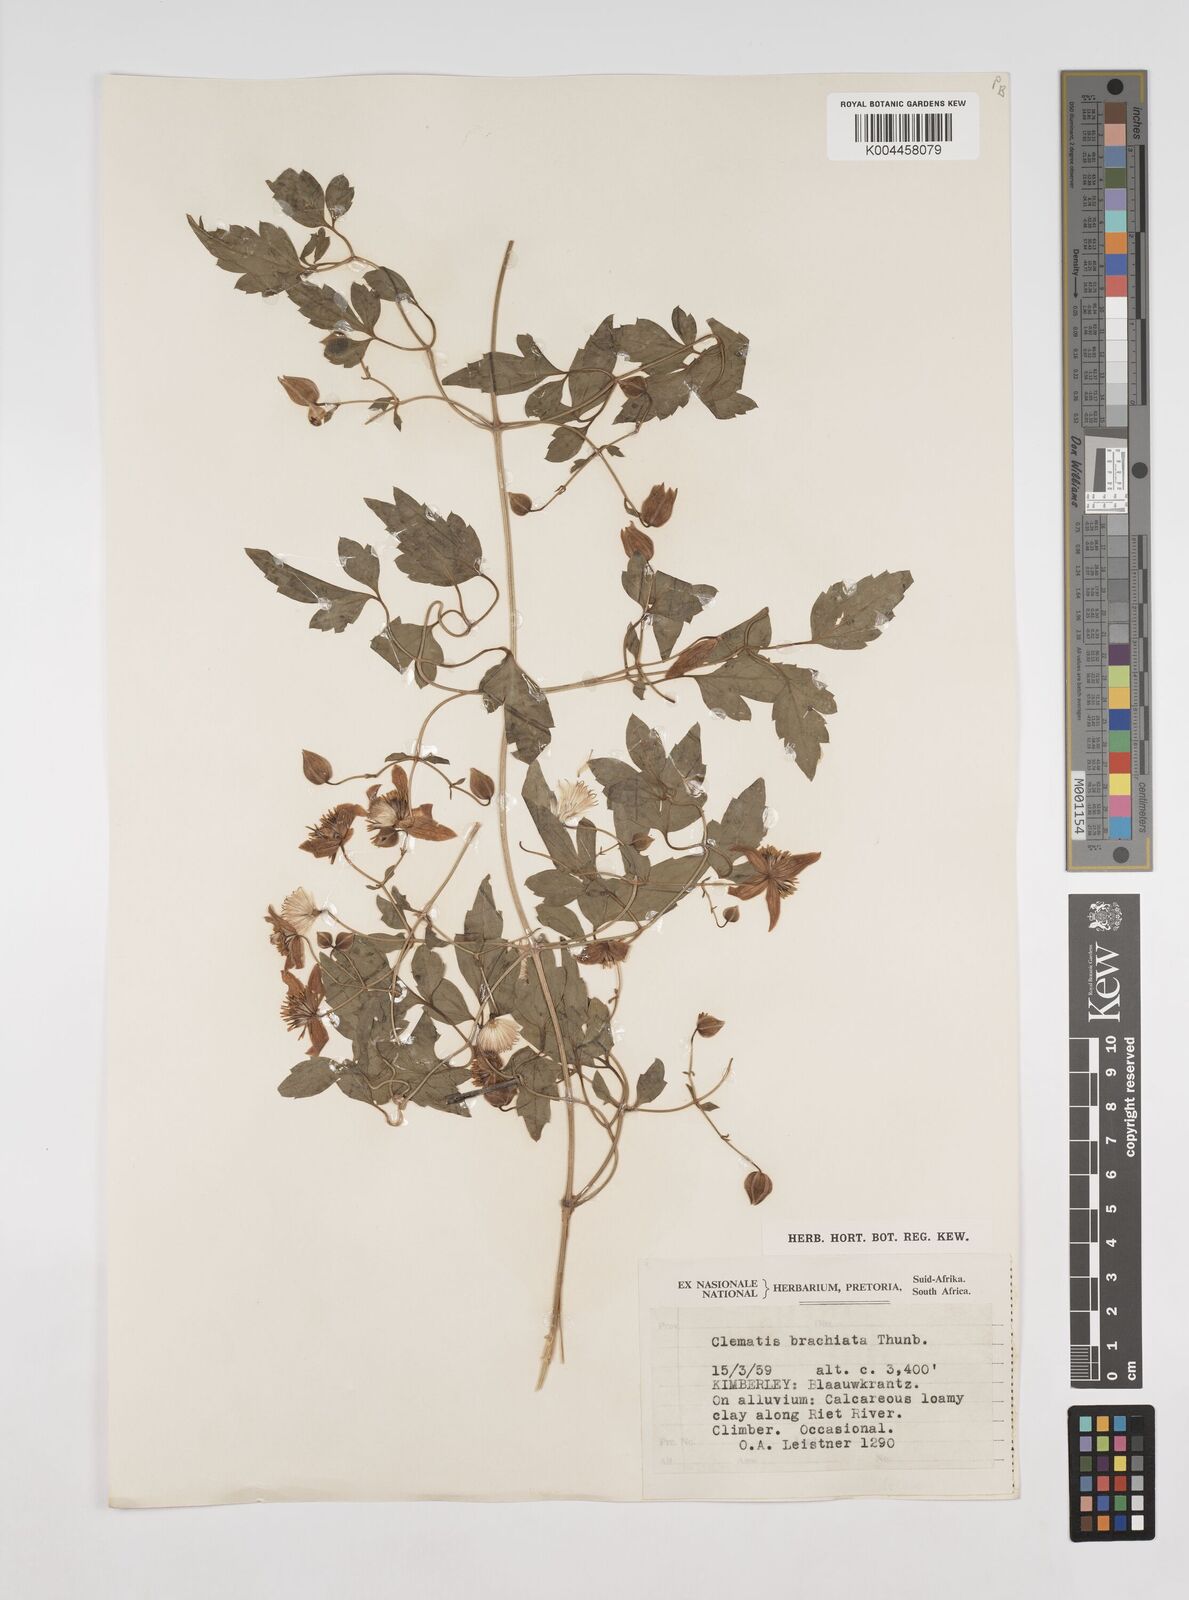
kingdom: Plantae
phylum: Tracheophyta
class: Magnoliopsida
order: Ranunculales
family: Ranunculaceae
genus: Clematis
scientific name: Clematis brachiata
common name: Traveler's-joy
